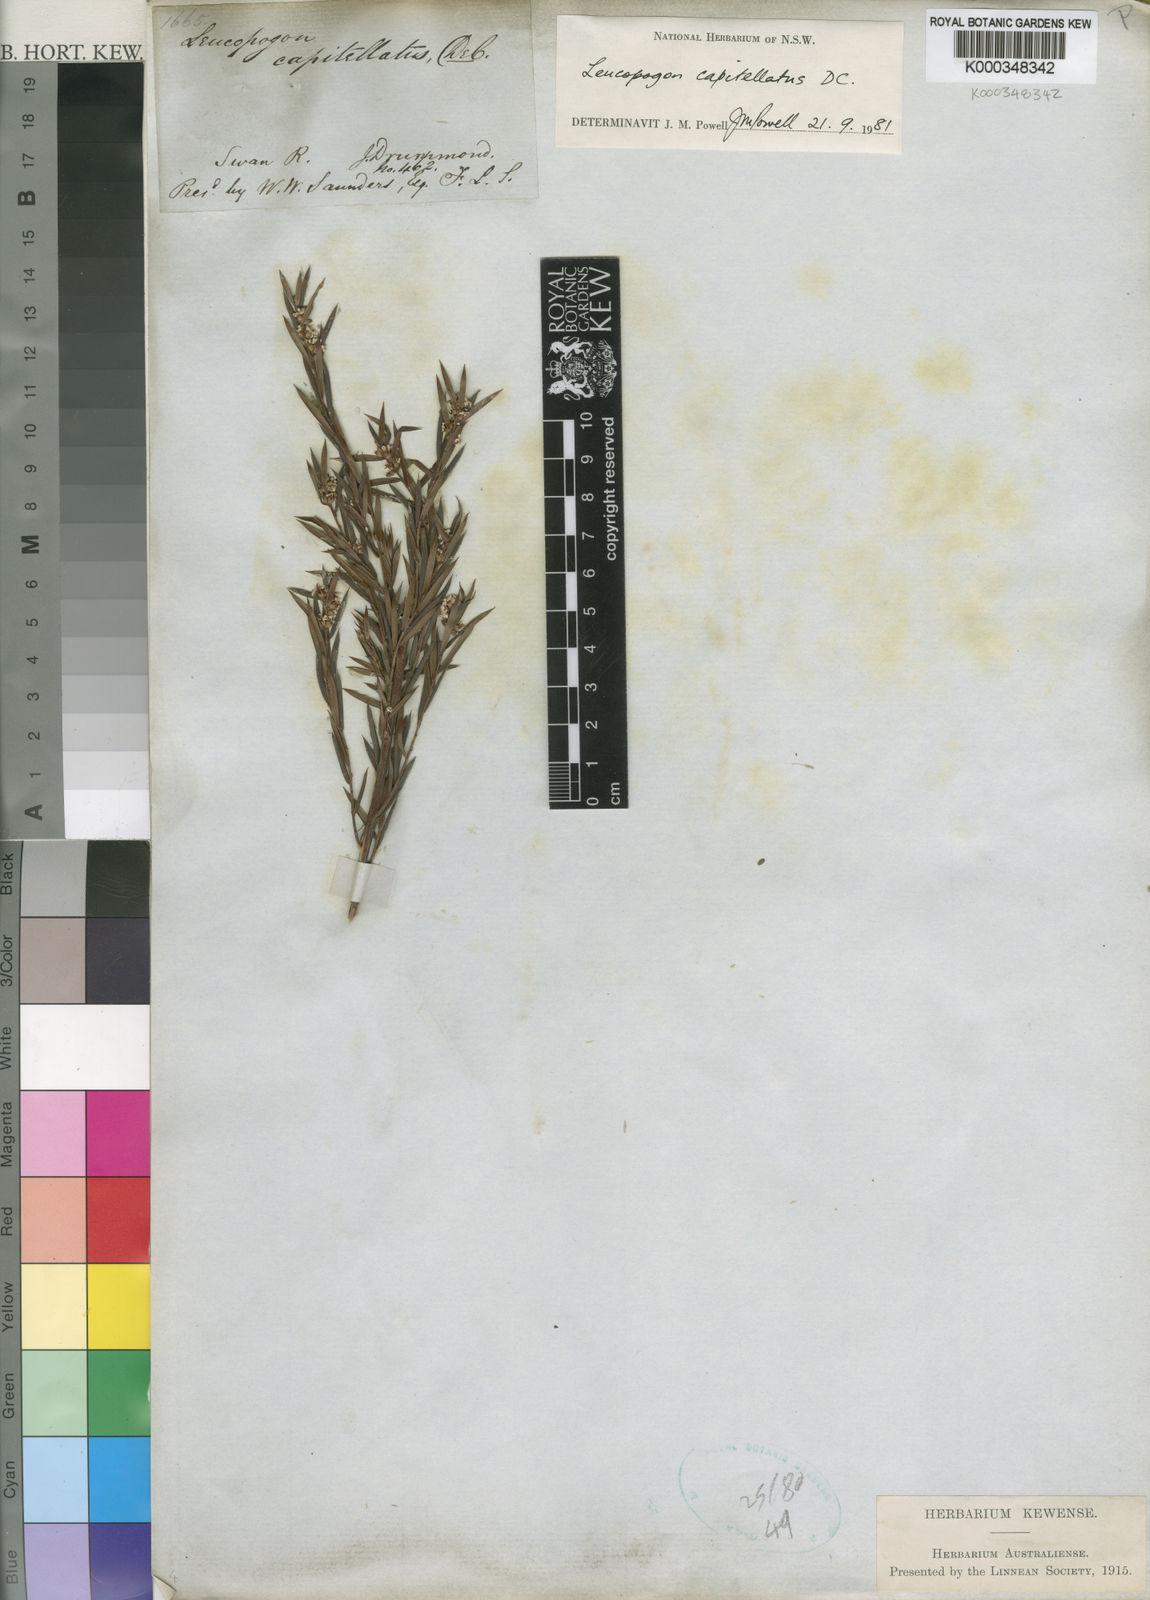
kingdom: Plantae
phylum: Tracheophyta
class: Magnoliopsida
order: Ericales
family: Ericaceae
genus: Leucopogon
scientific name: Leucopogon capitellatus
